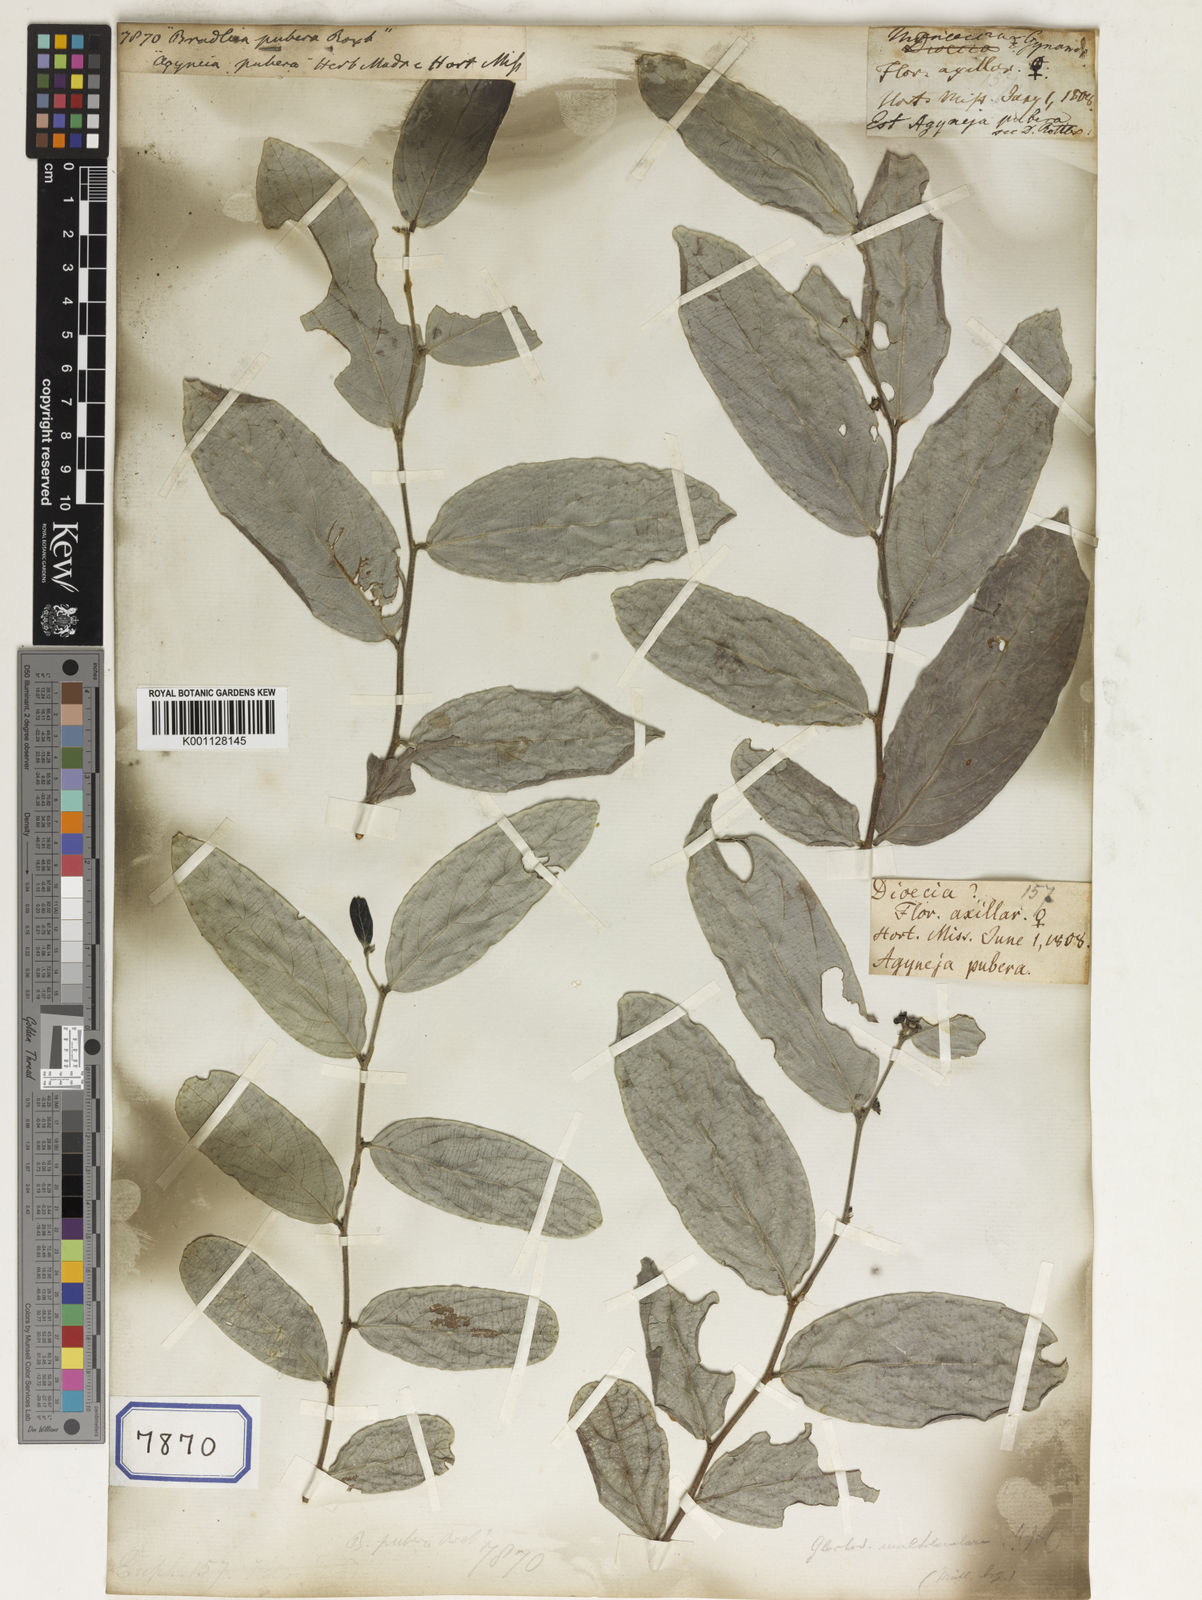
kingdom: Plantae
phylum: Tracheophyta
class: Magnoliopsida
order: Malpighiales
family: Euphorbiaceae
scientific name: Euphorbiaceae
